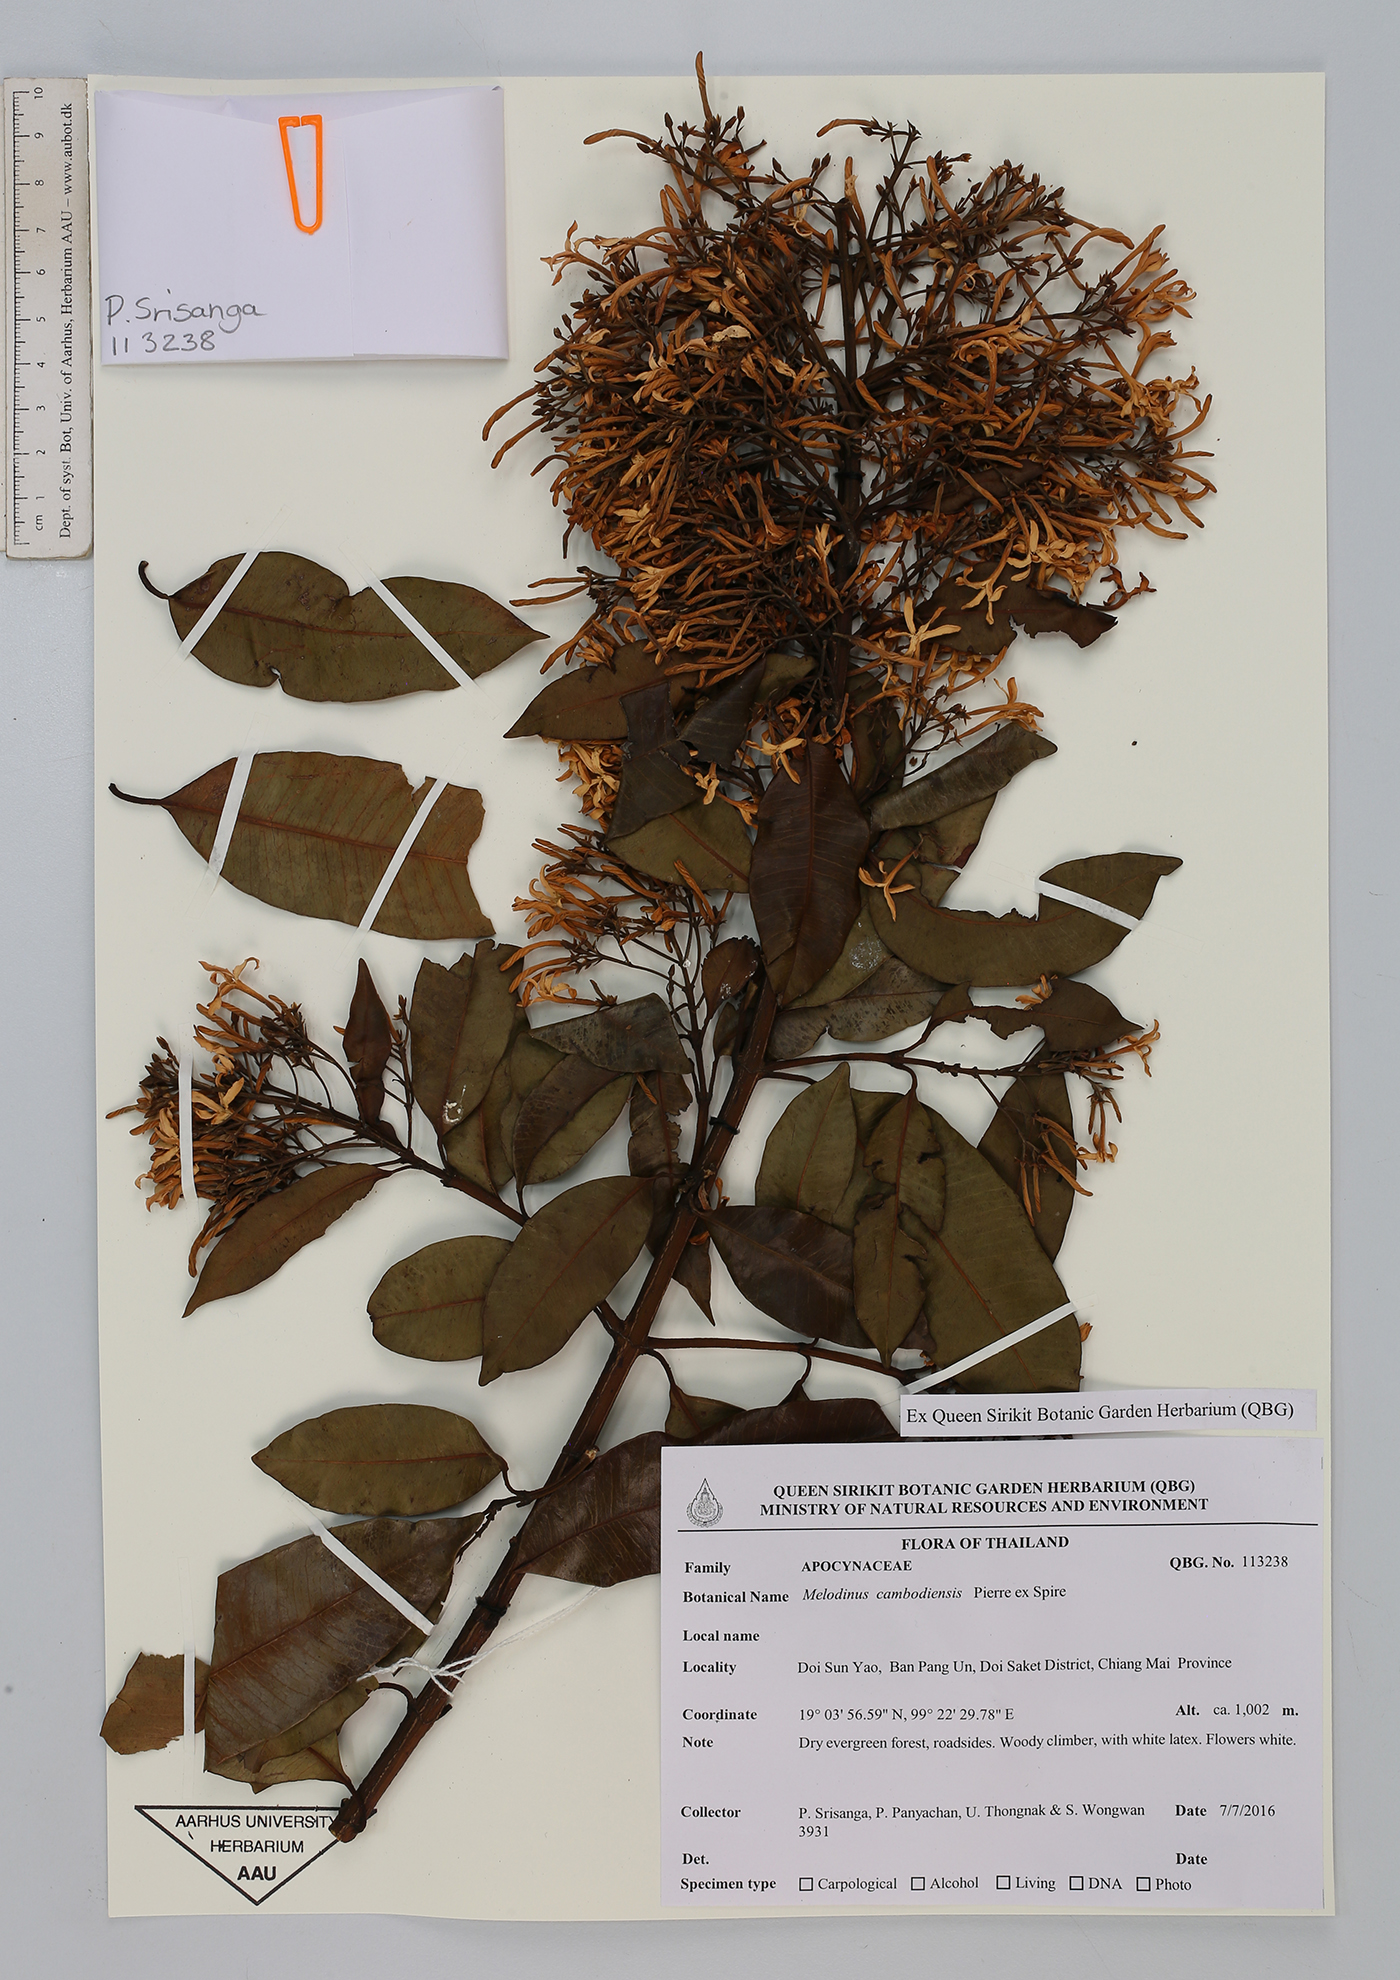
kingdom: Plantae
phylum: Tracheophyta
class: Magnoliopsida
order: Gentianales
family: Apocynaceae
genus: Melodinus
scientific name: Melodinus cambodiensis
